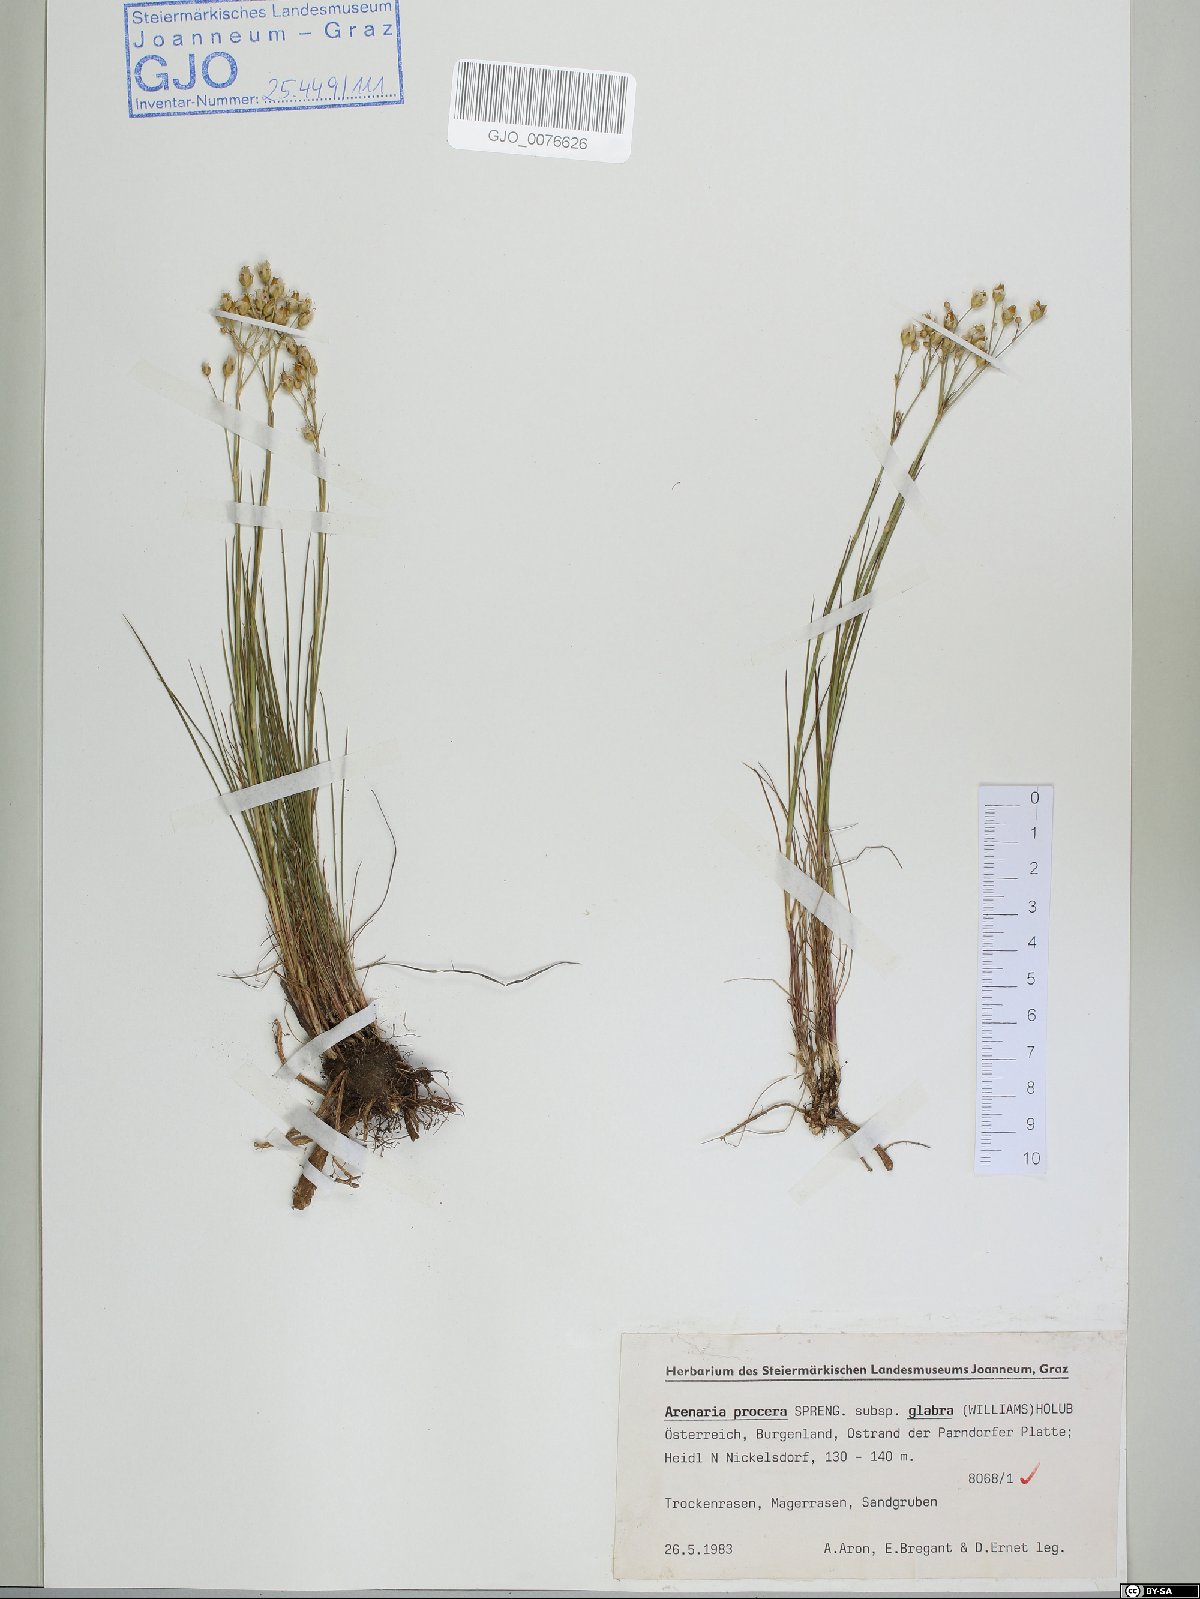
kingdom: Plantae
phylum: Tracheophyta
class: Magnoliopsida
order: Caryophyllales
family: Caryophyllaceae
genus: Eremogone
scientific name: Eremogone saxatilis
